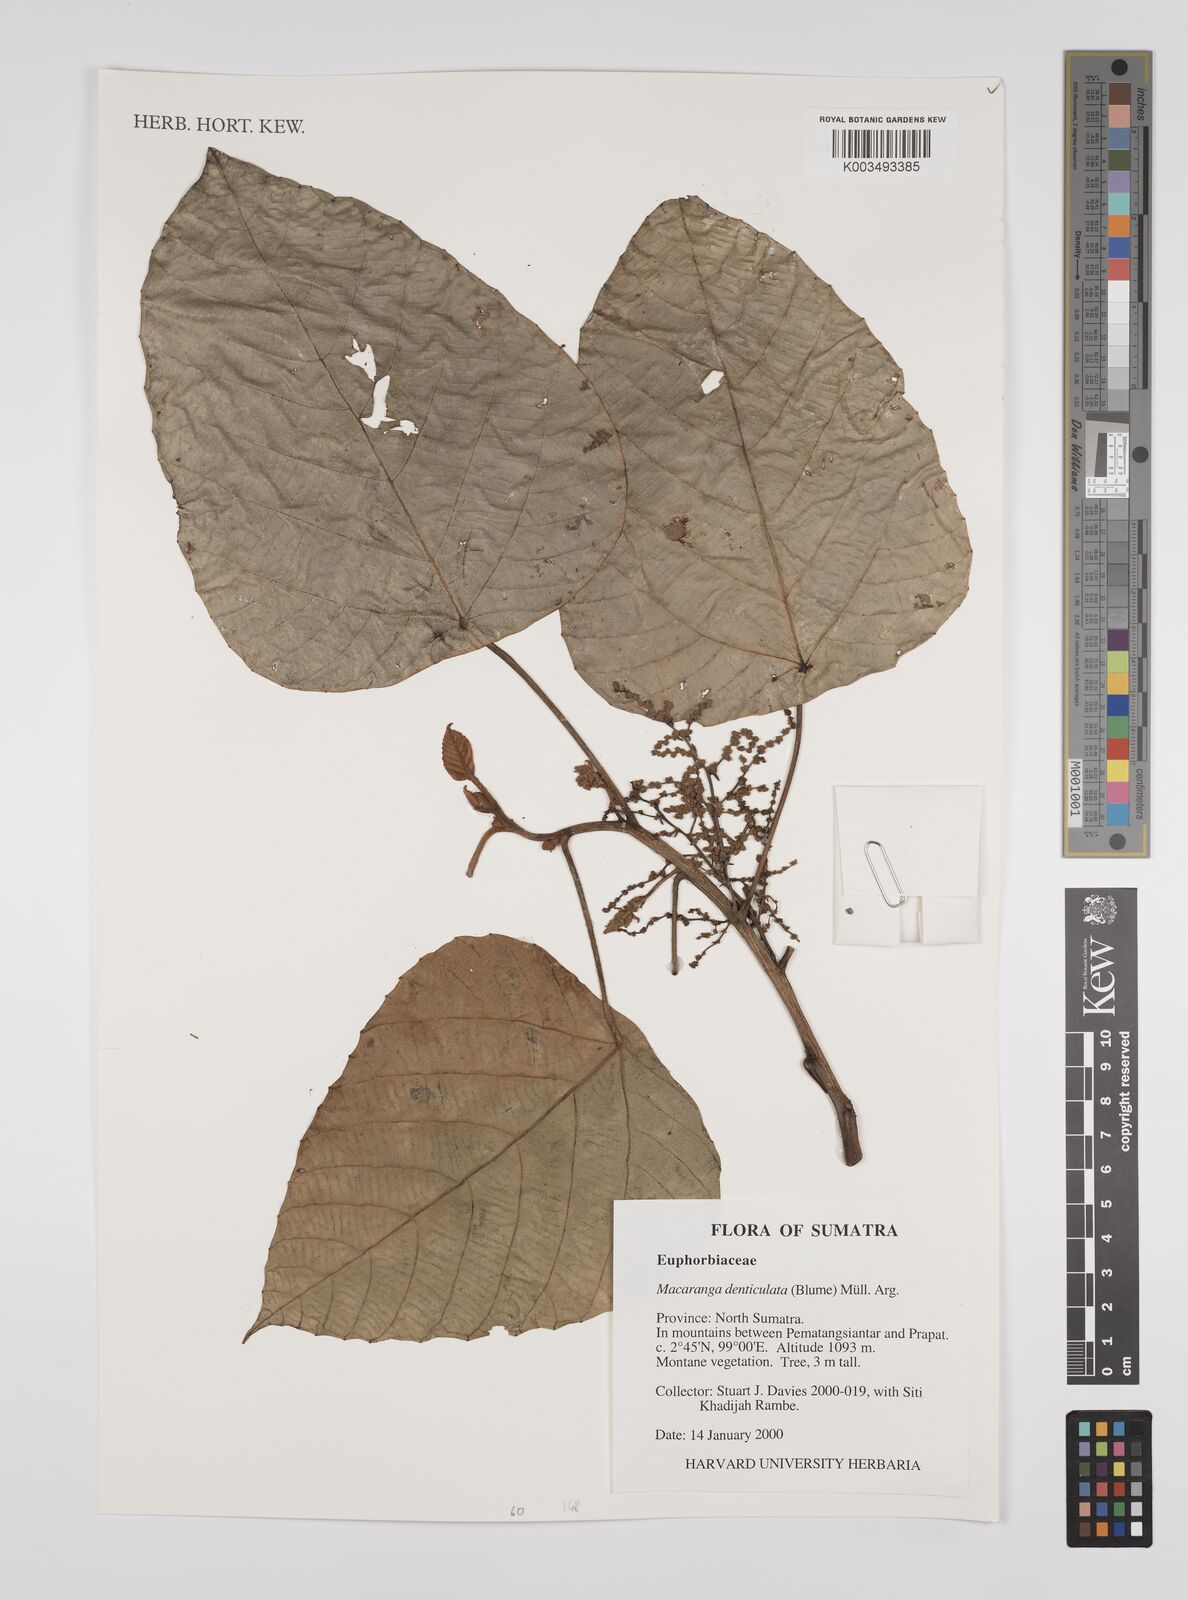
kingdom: Plantae
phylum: Tracheophyta
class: Magnoliopsida
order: Malpighiales
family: Euphorbiaceae
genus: Macaranga
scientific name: Macaranga denticulata
